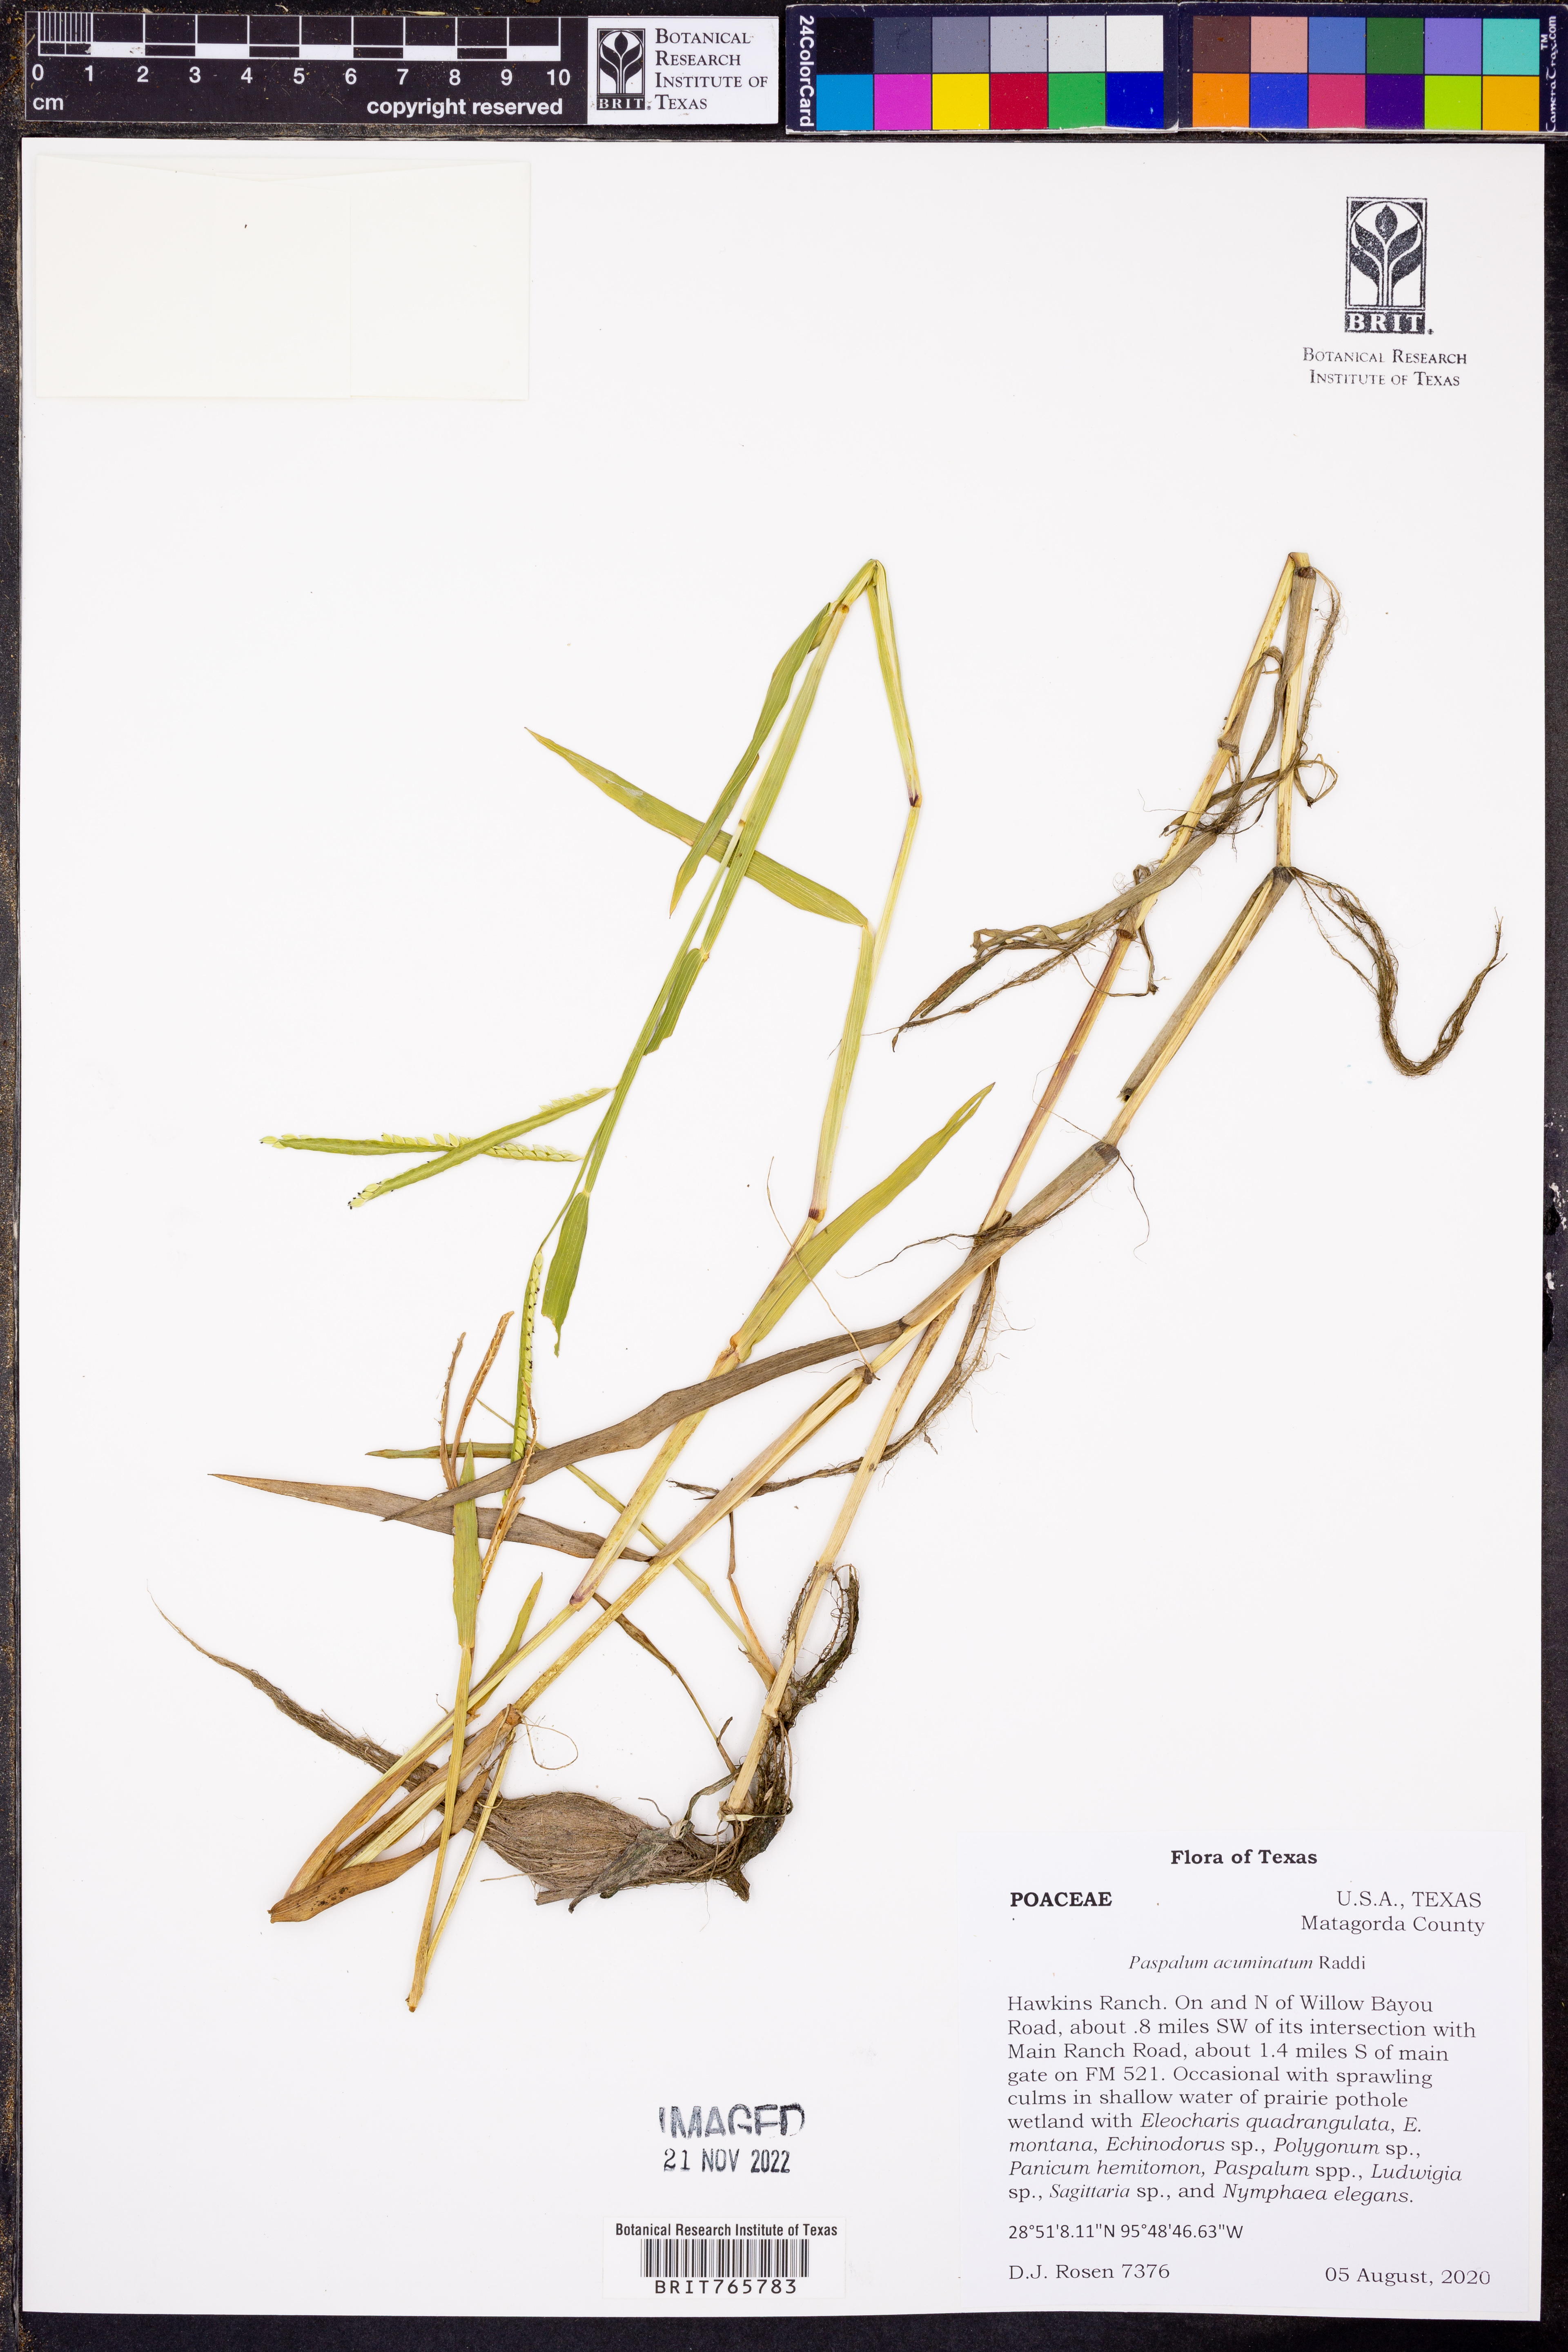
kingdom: Plantae
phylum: Tracheophyta
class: Liliopsida
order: Poales
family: Poaceae
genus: Paspalum
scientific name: Paspalum acuminatum
